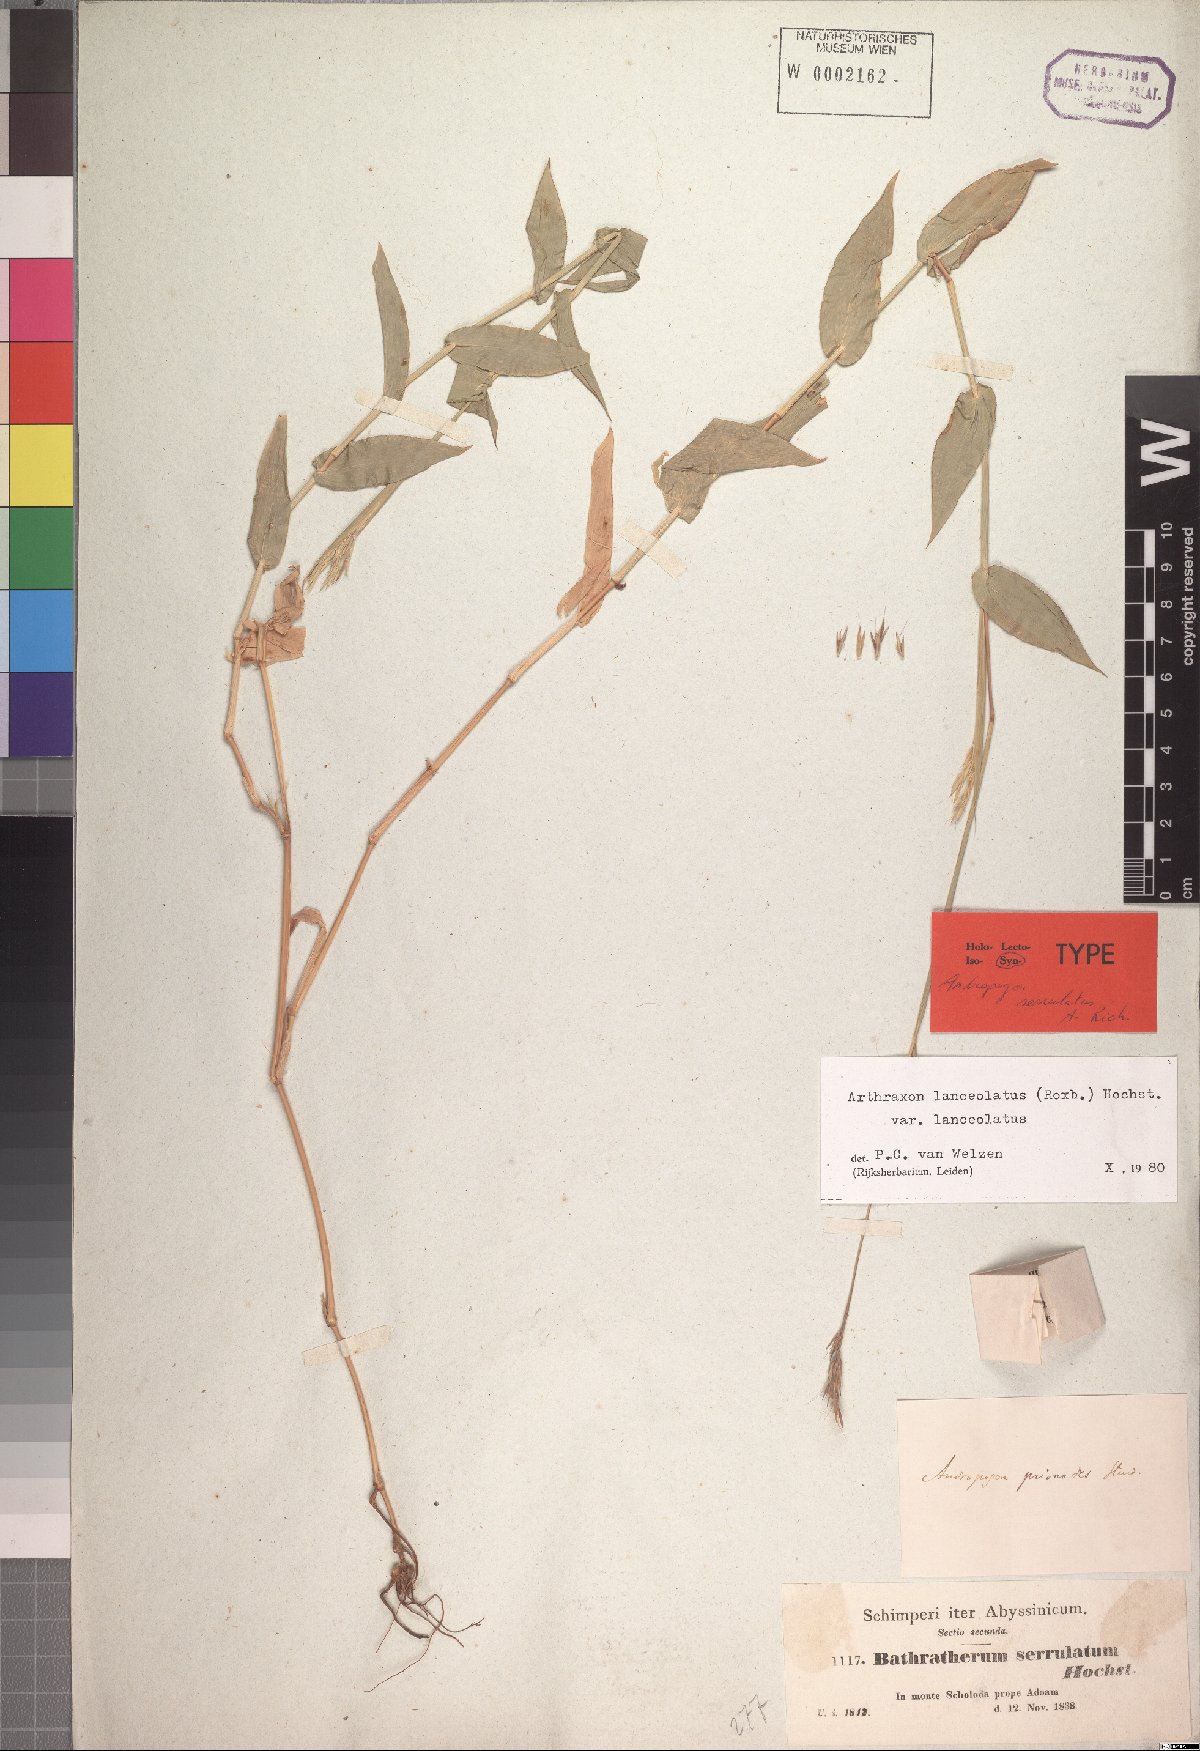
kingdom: Plantae
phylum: Tracheophyta
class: Liliopsida
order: Poales
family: Poaceae
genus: Arthraxon
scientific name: Arthraxon lanceolatus
